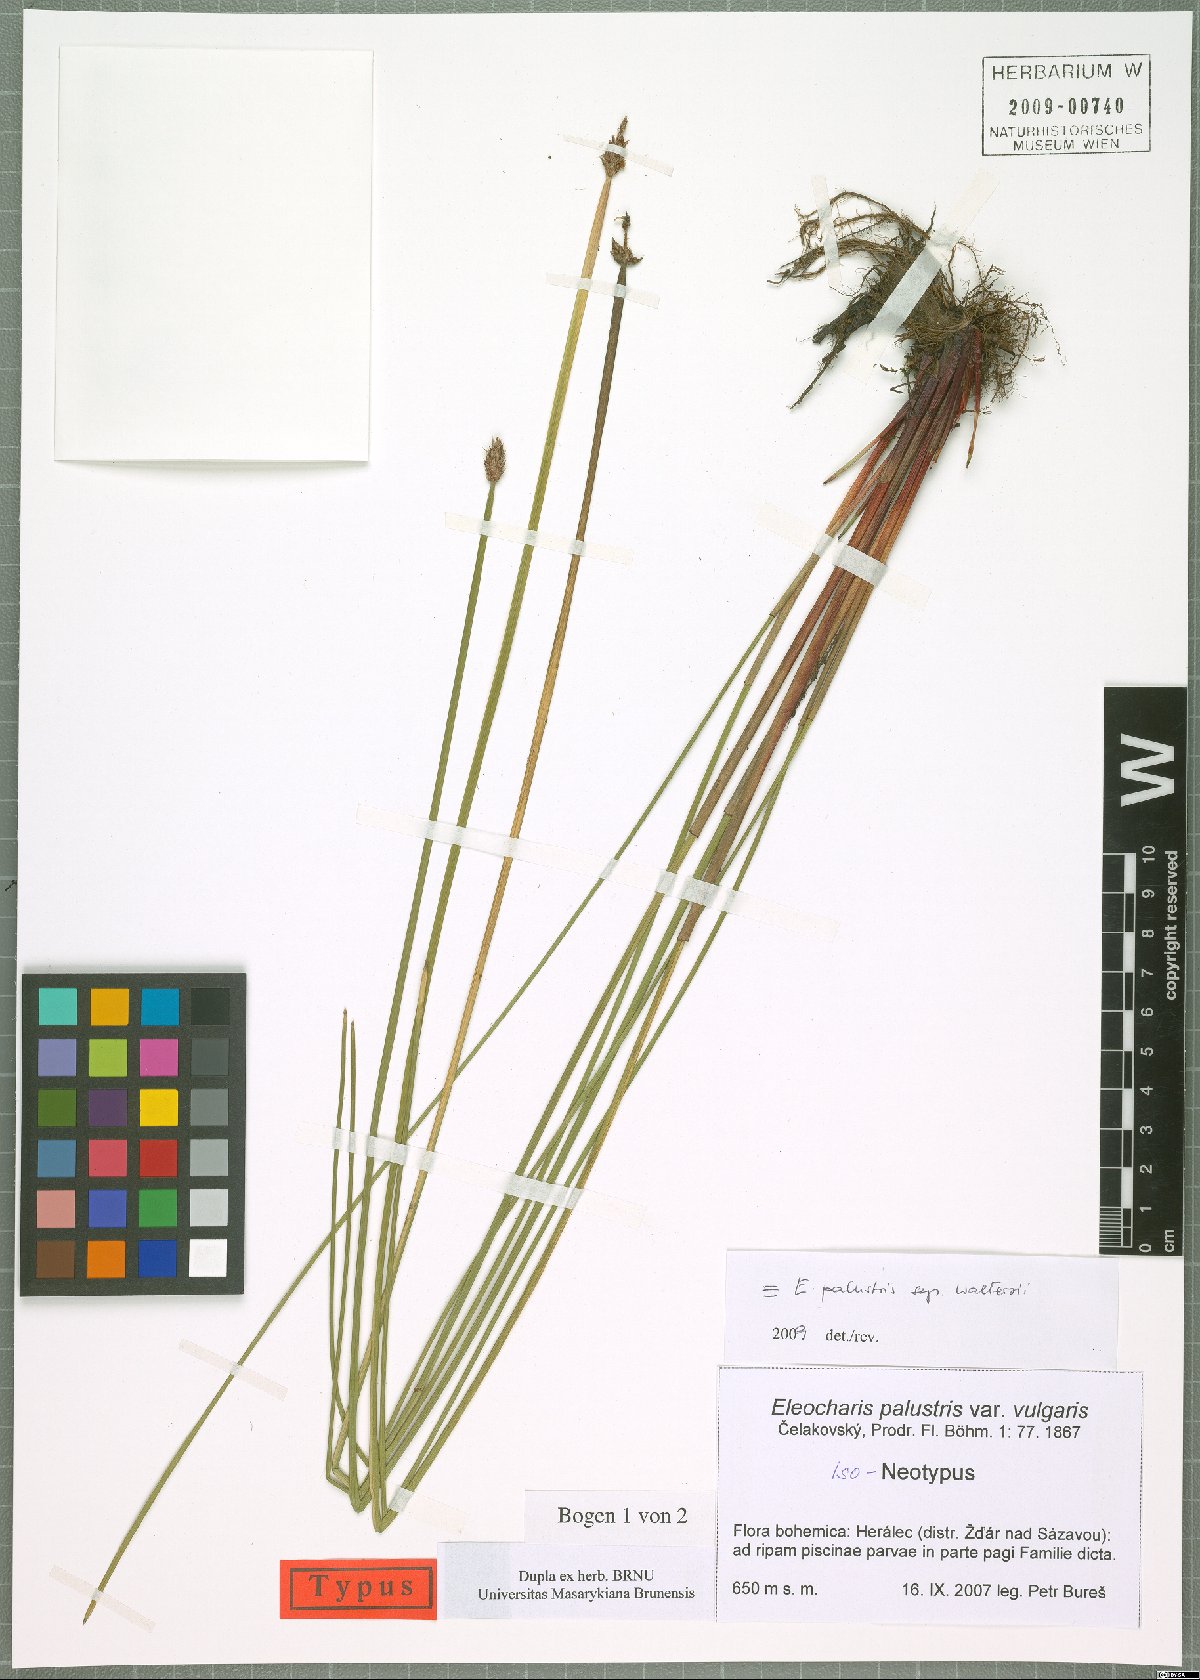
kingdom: Plantae
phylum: Tracheophyta
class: Liliopsida
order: Poales
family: Cyperaceae
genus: Eleocharis
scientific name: Eleocharis palustris
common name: Common spike-rush
